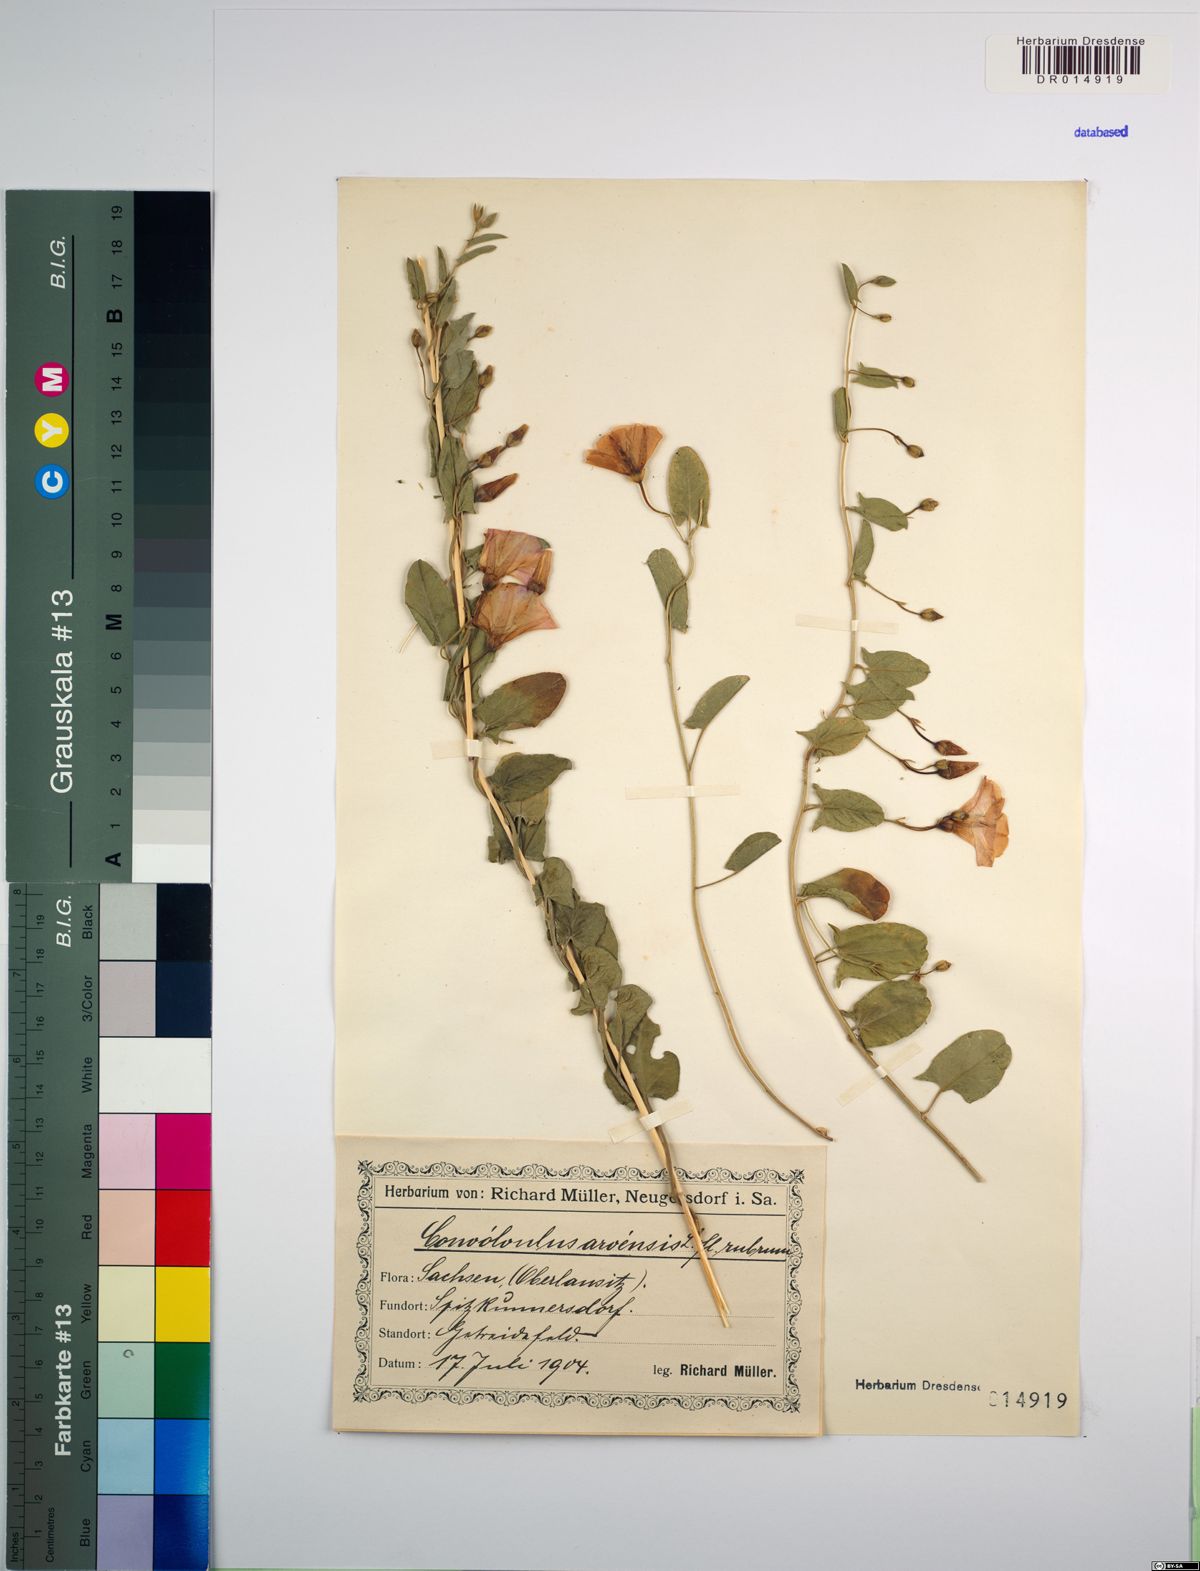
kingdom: Plantae
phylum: Tracheophyta
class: Magnoliopsida
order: Solanales
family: Convolvulaceae
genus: Convolvulus
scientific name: Convolvulus arvensis
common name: Field bindweed
